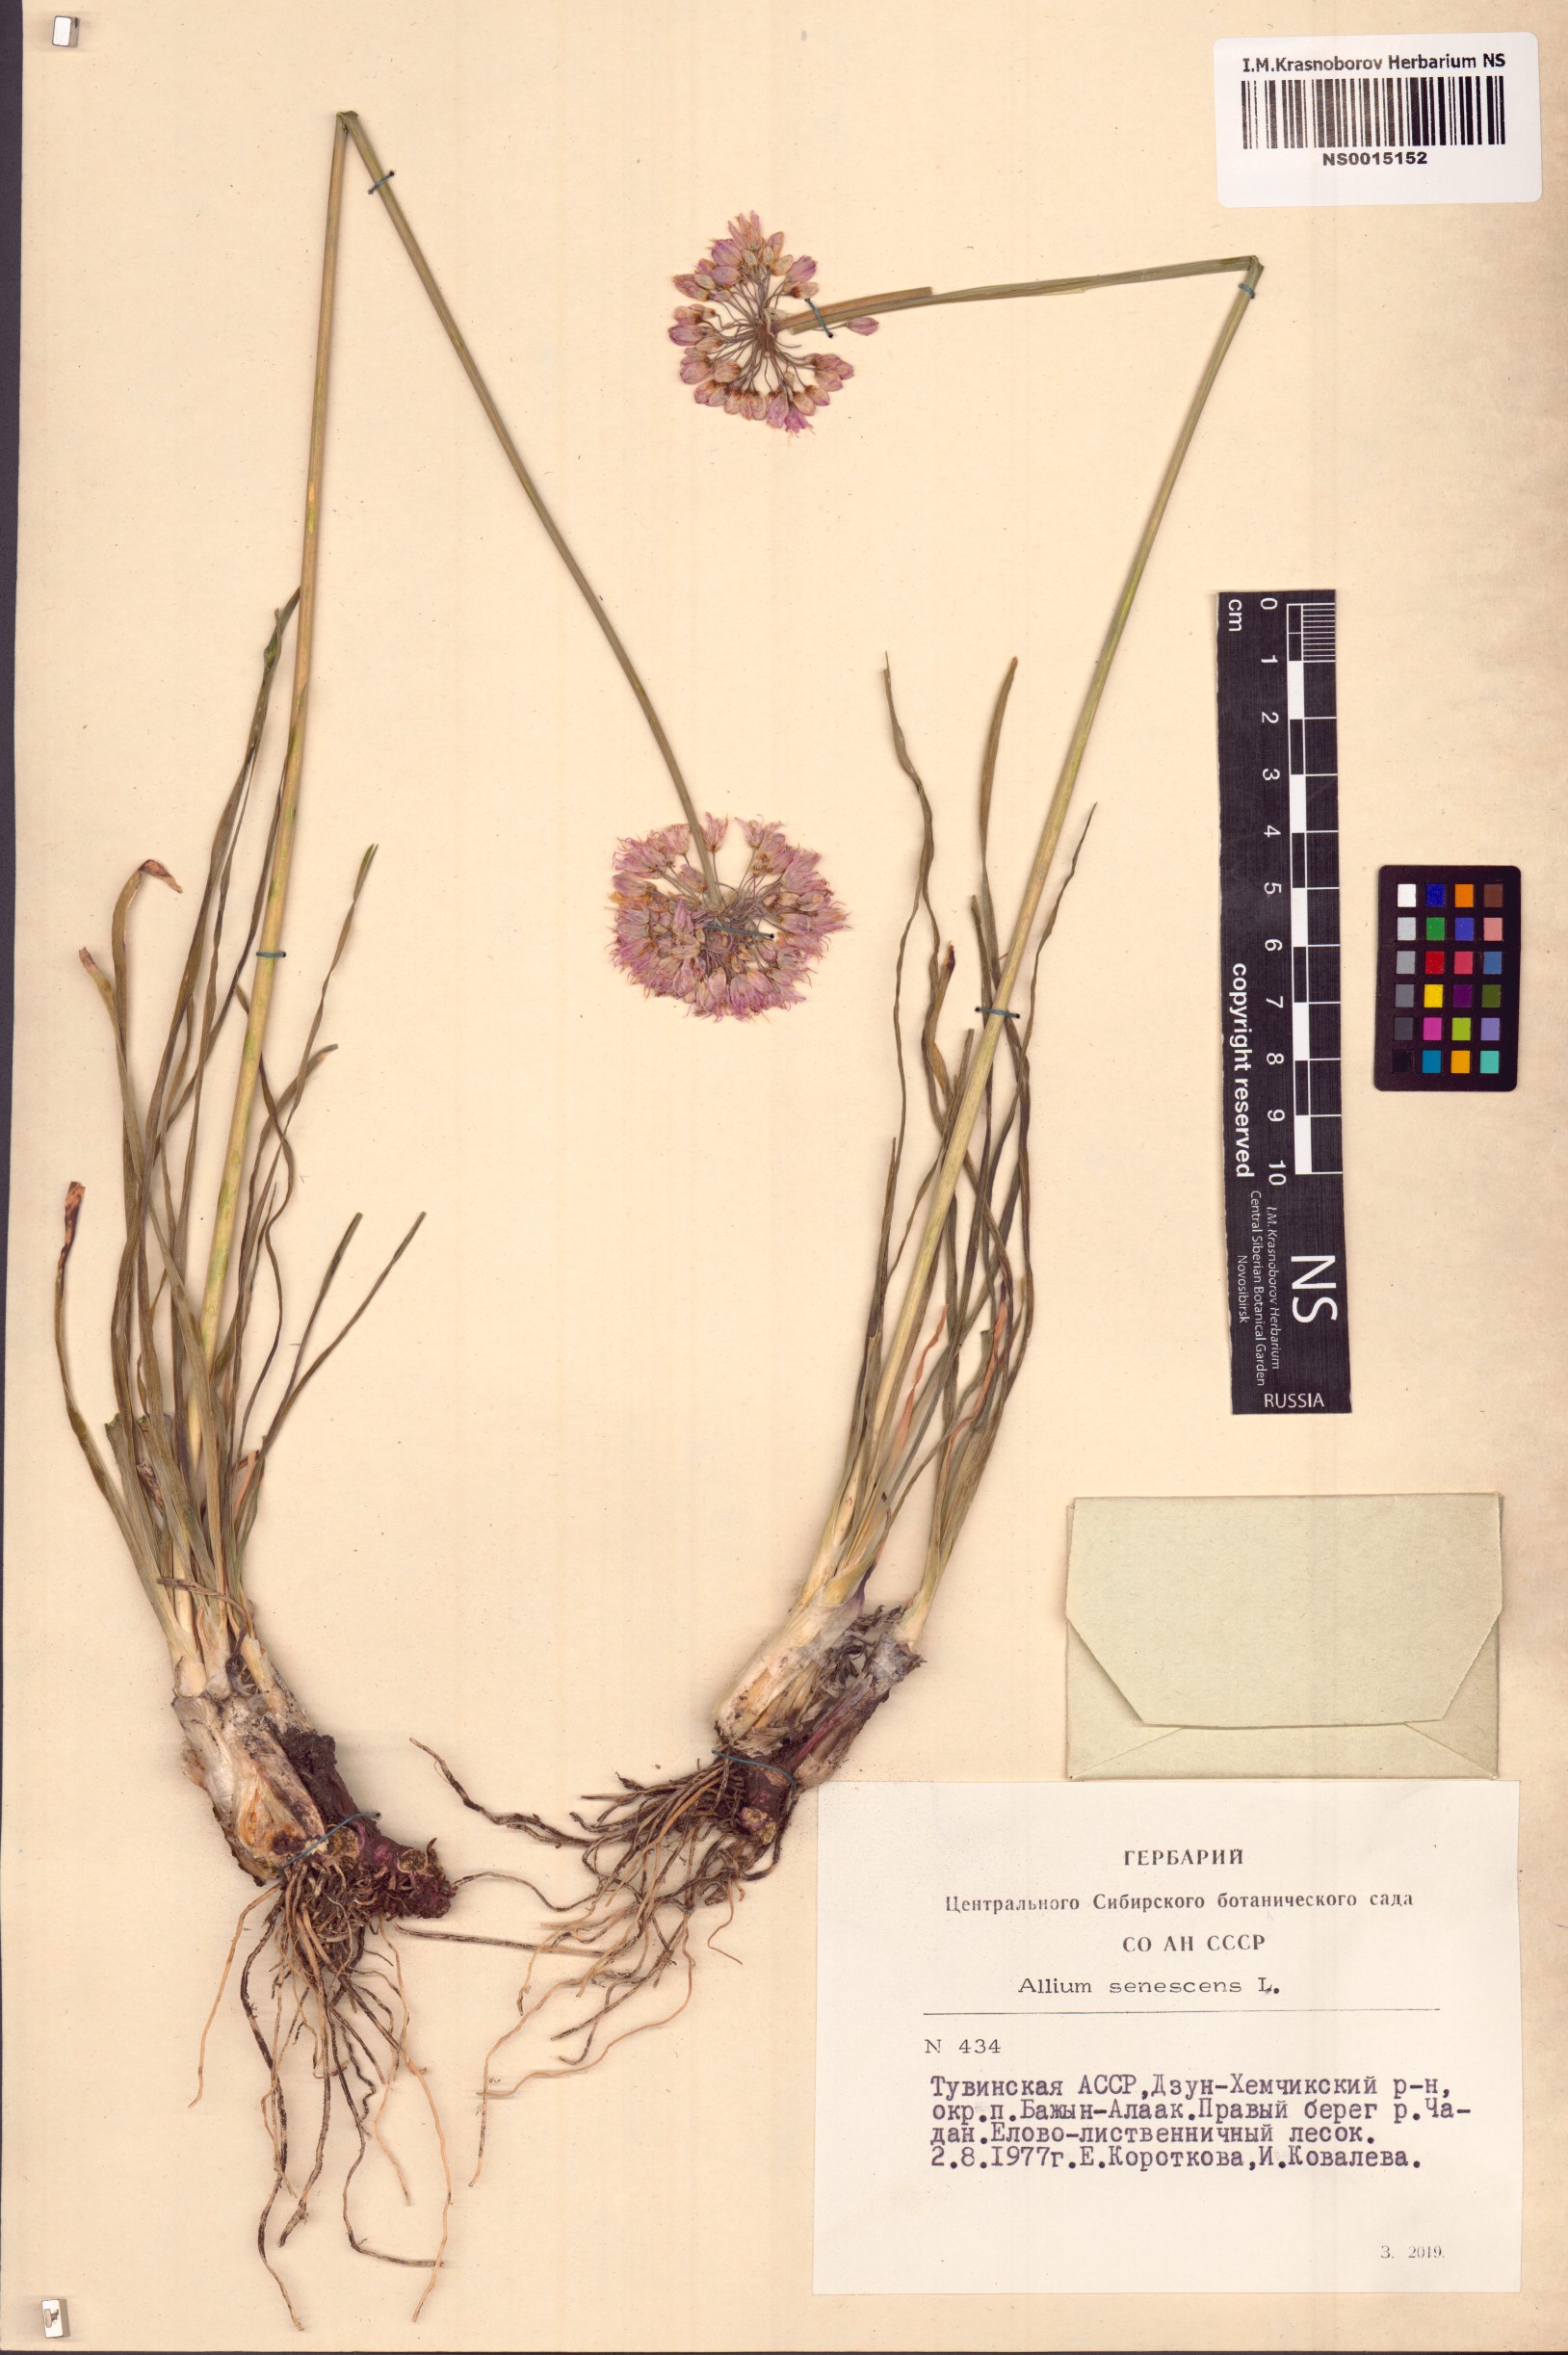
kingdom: Plantae
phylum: Tracheophyta
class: Liliopsida
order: Asparagales
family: Amaryllidaceae
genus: Allium
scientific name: Allium senescens
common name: German garlic
